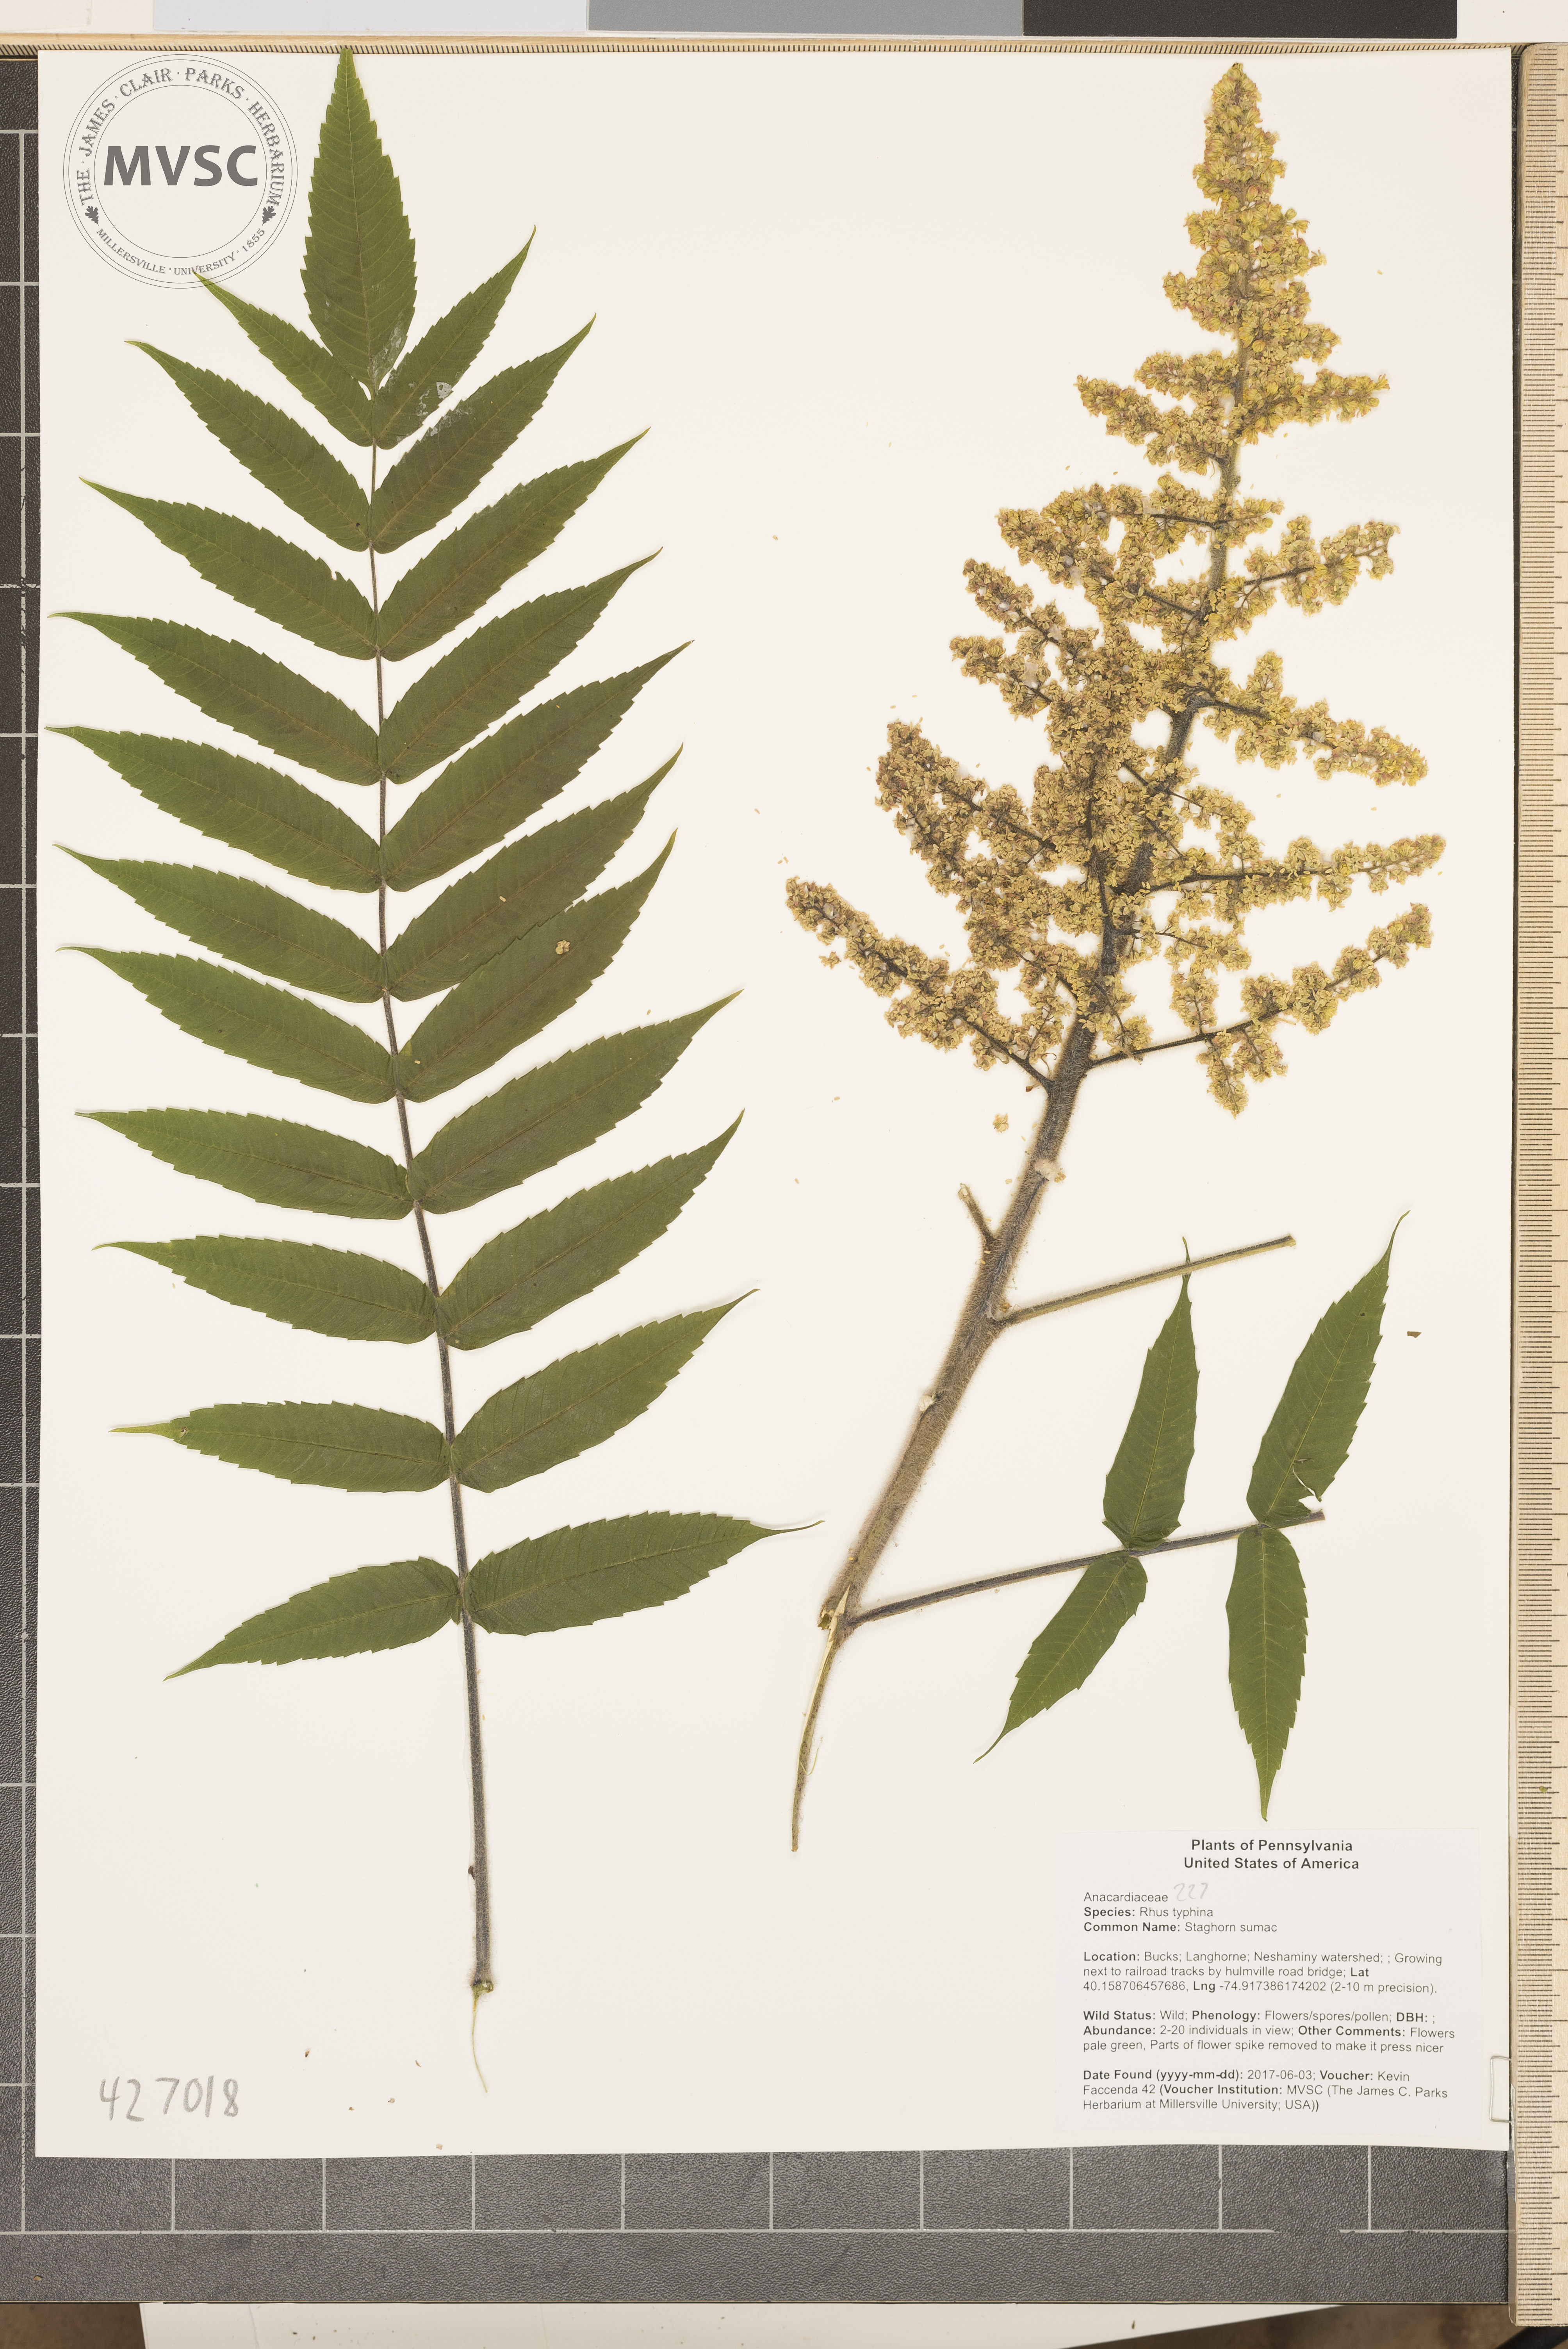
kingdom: Plantae
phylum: Tracheophyta
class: Magnoliopsida
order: Sapindales
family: Anacardiaceae
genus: Rhus
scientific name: Rhus typhina
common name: Staghorn sumac
